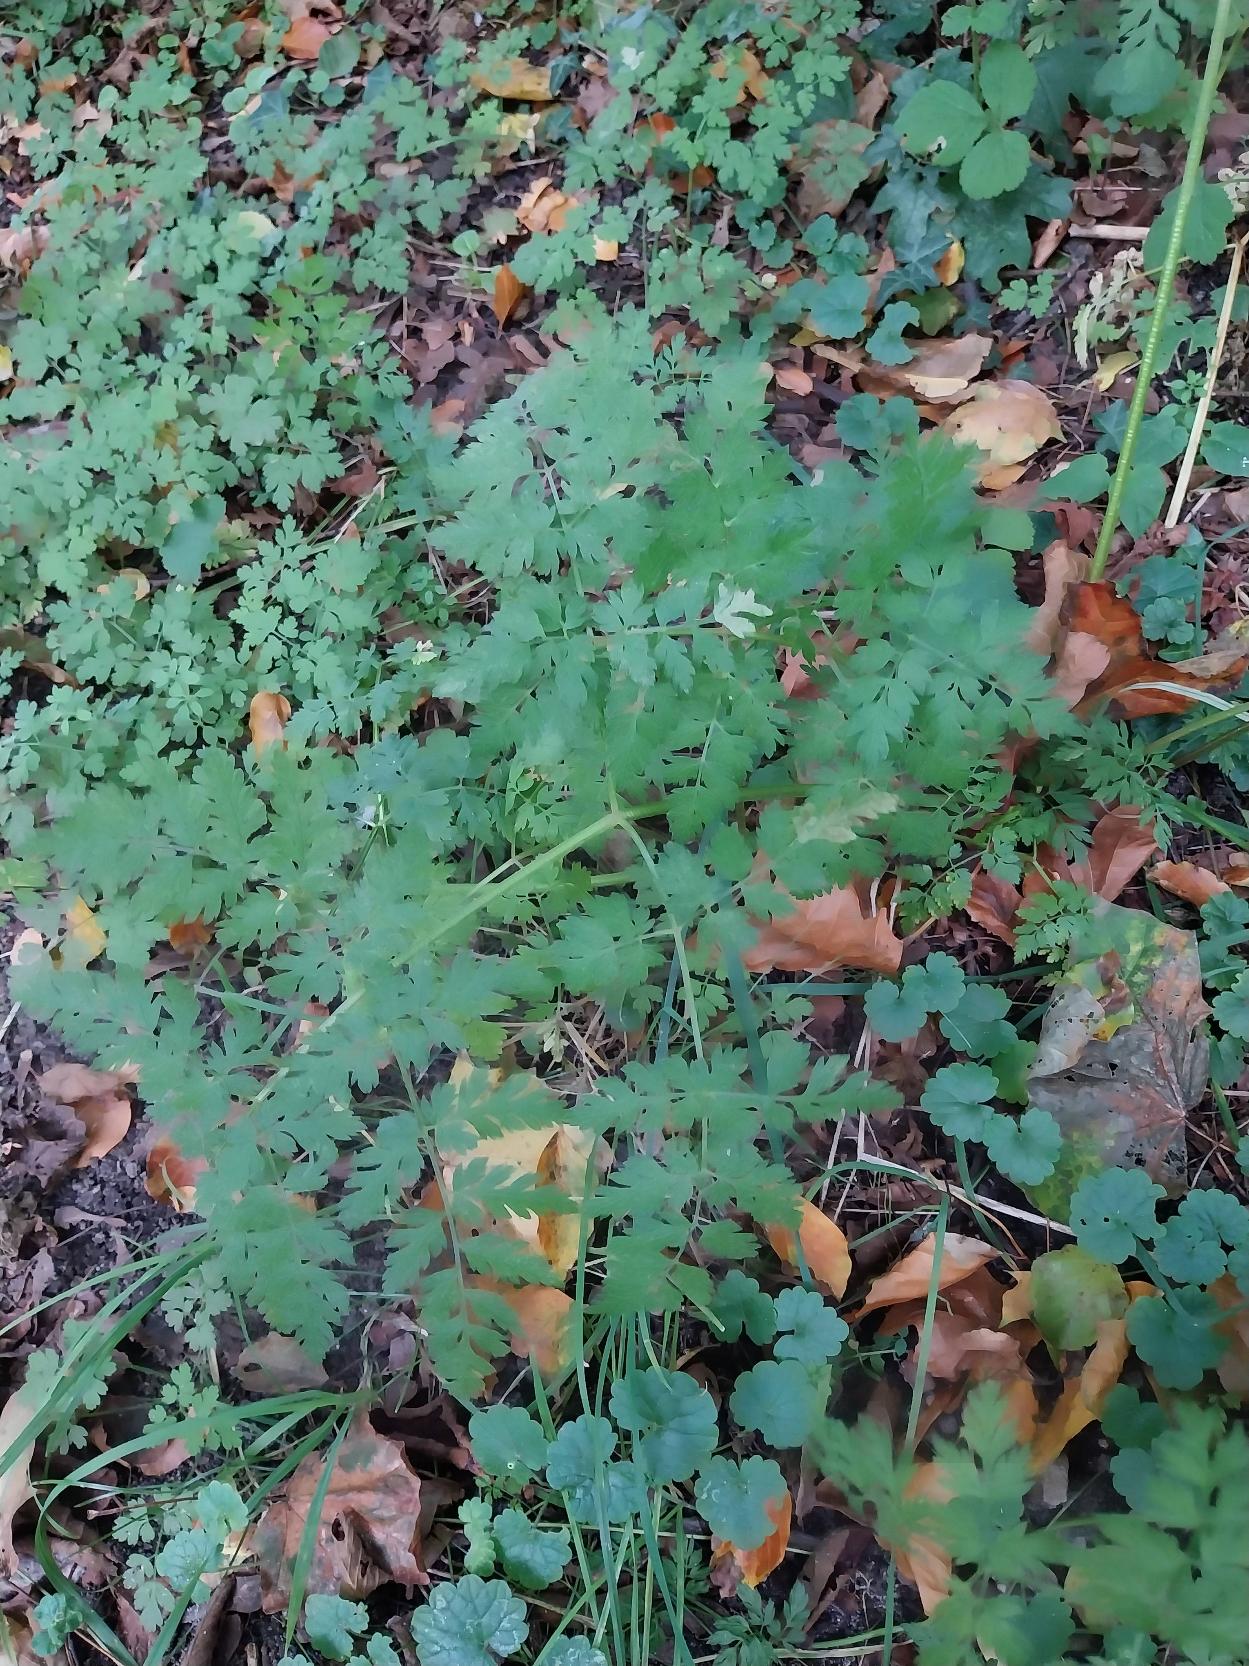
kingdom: Plantae
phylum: Tracheophyta
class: Magnoliopsida
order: Apiales
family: Apiaceae
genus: Myrrhis
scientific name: Myrrhis odorata
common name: Sødskærm
